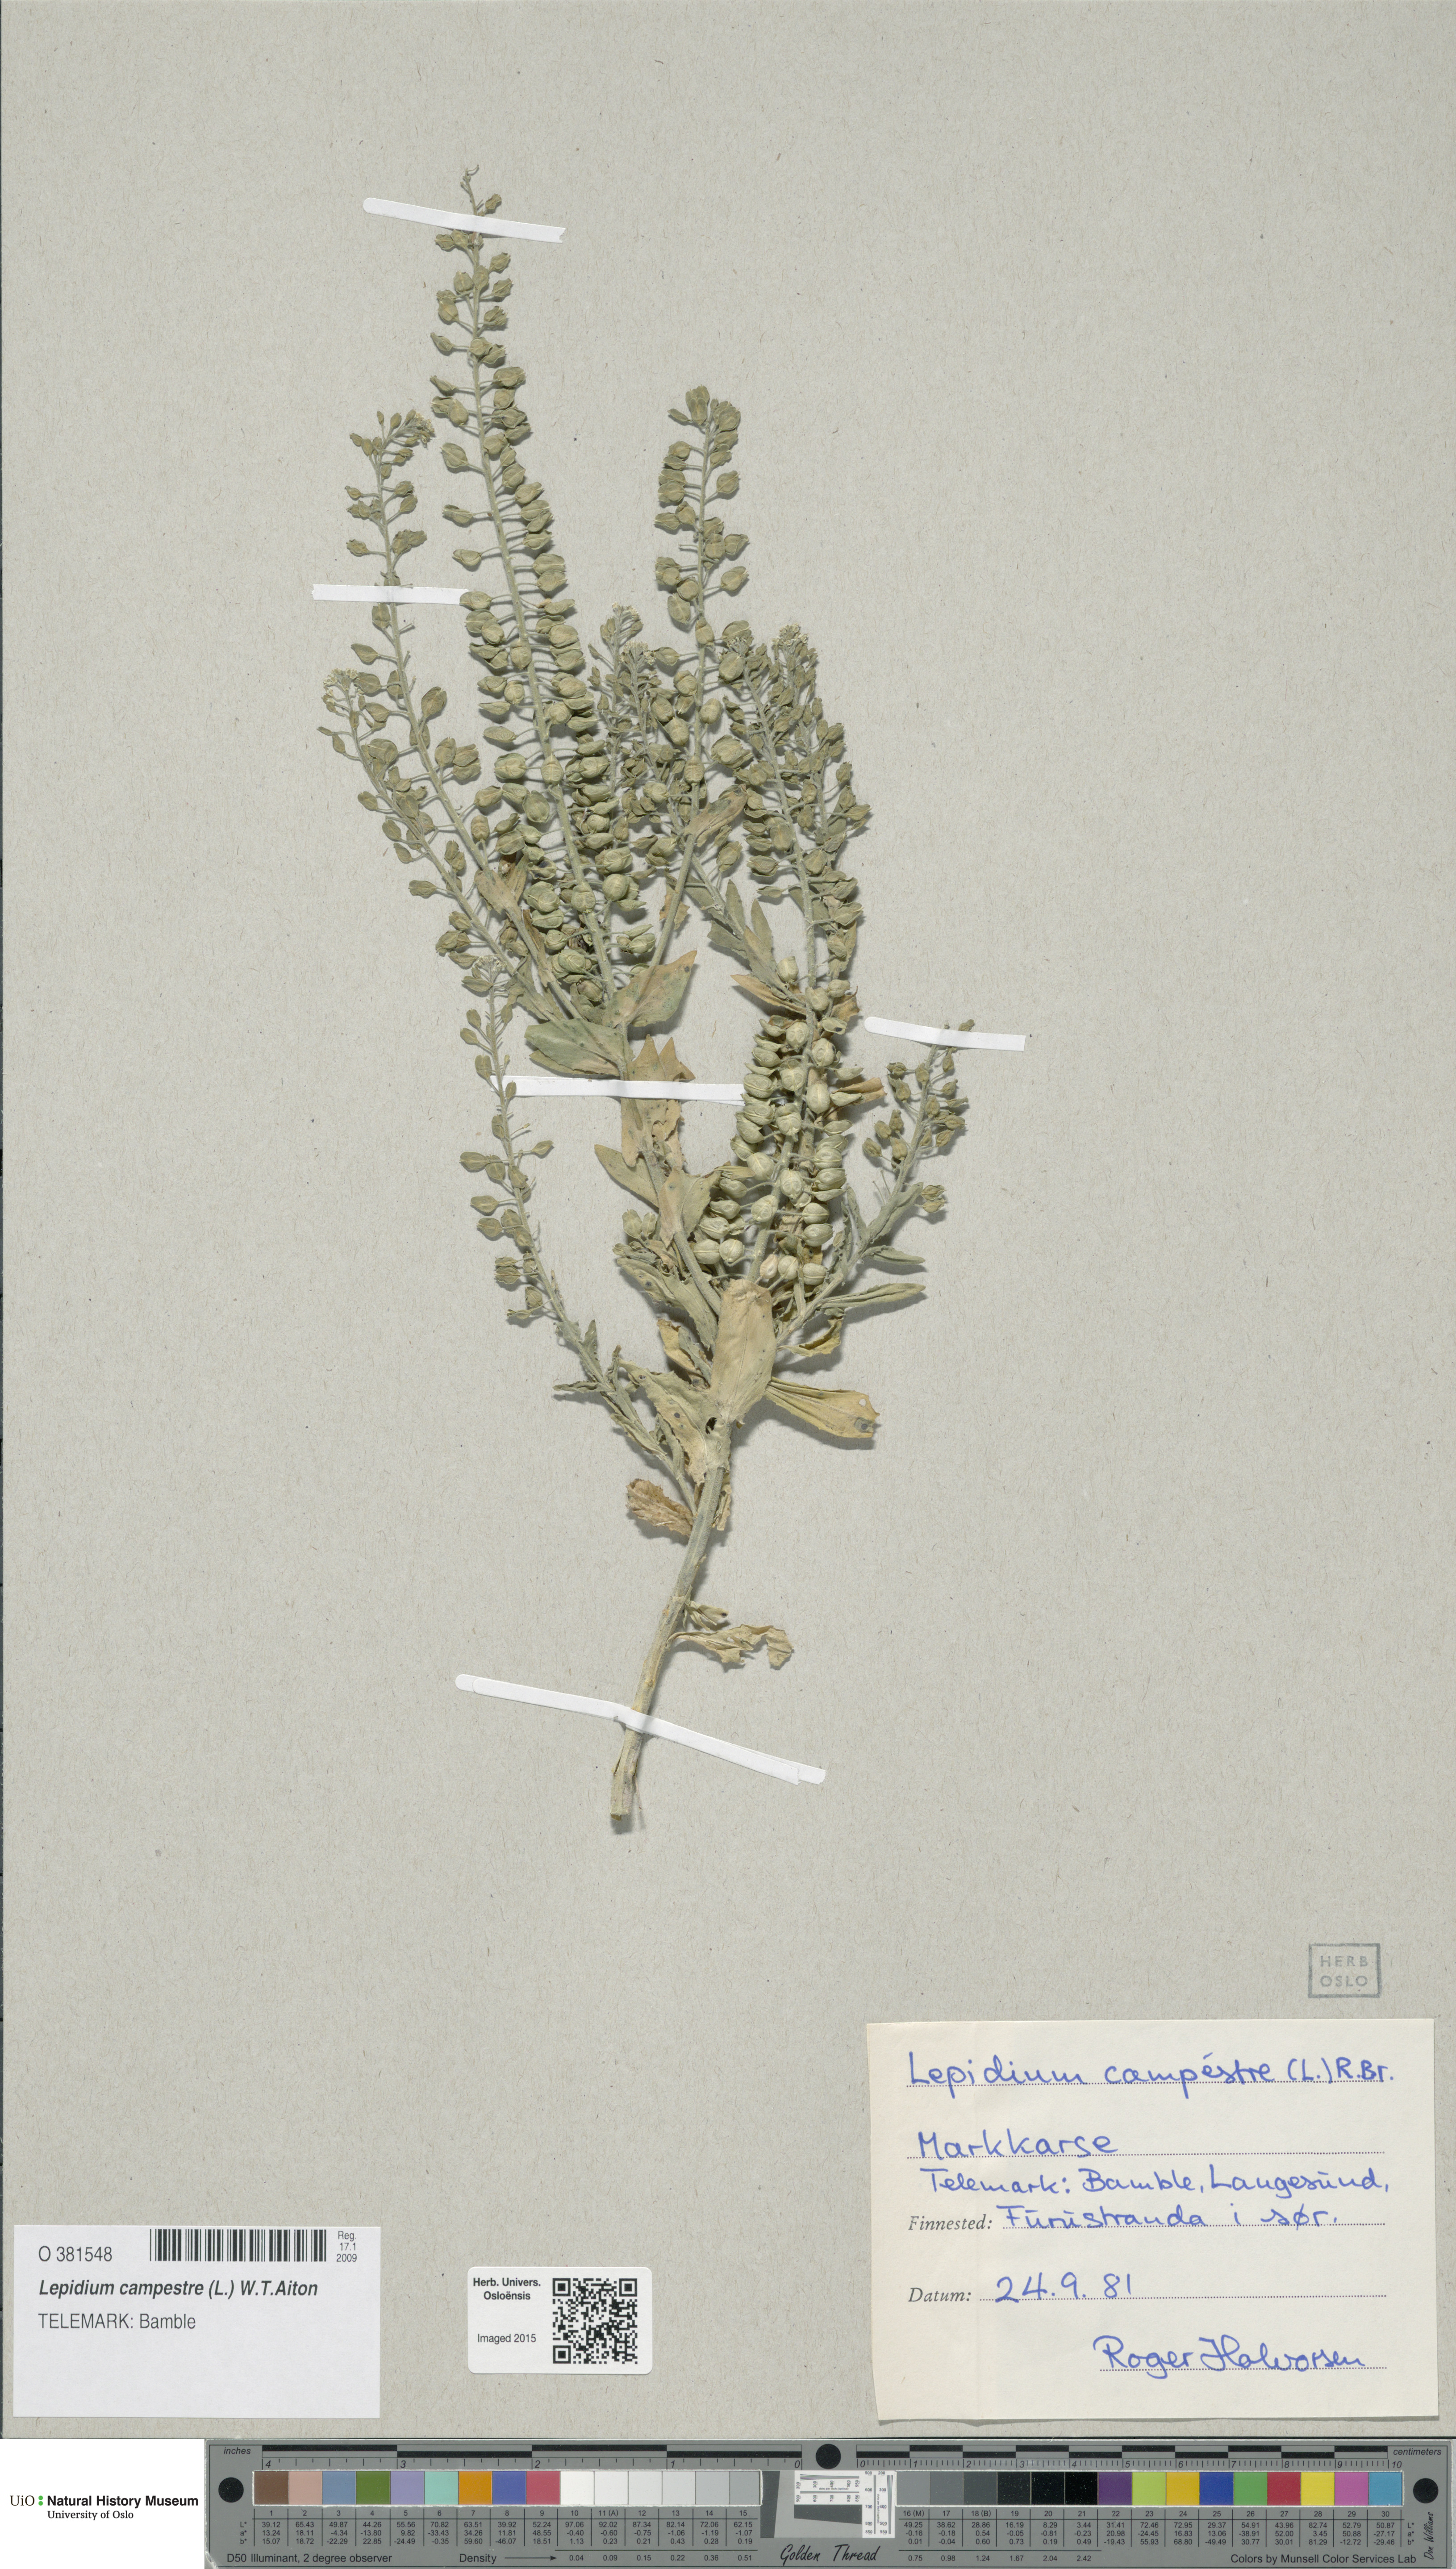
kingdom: Plantae
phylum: Tracheophyta
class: Magnoliopsida
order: Brassicales
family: Brassicaceae
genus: Lepidium
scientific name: Lepidium campestre
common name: Field pepperwort
